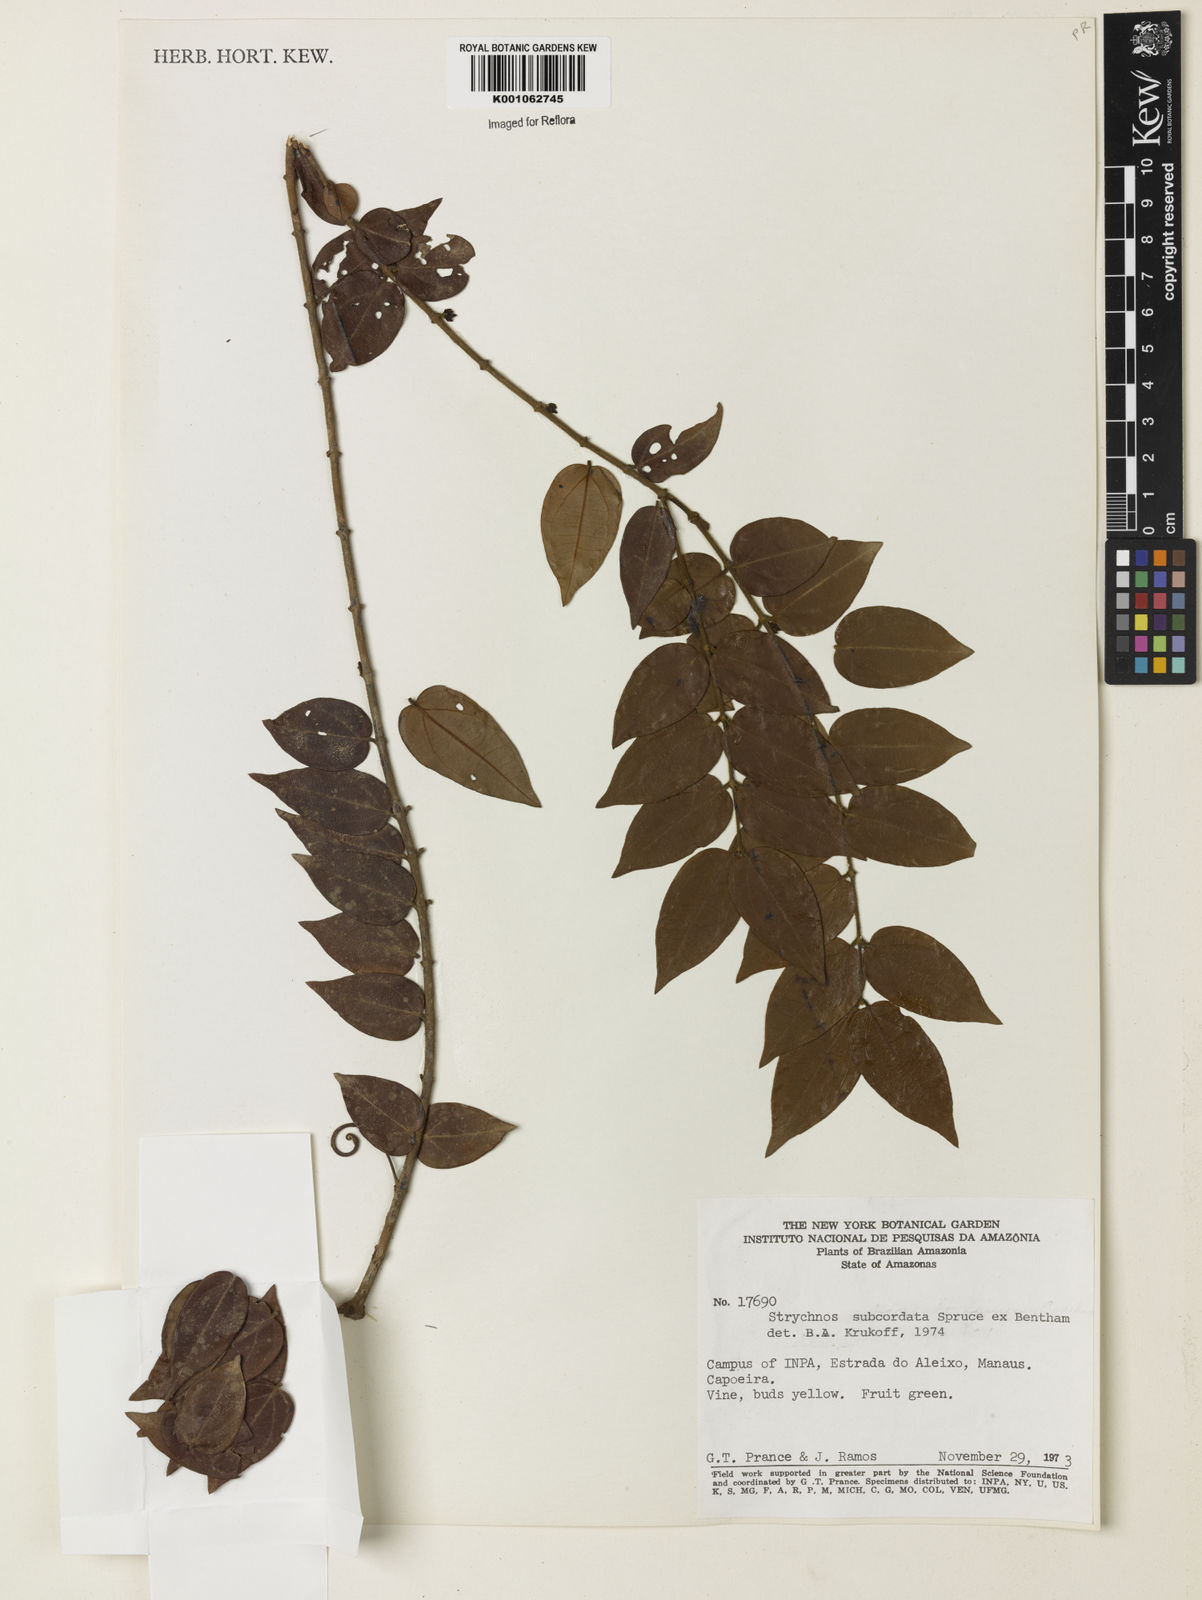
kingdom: Plantae
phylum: Tracheophyta
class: Magnoliopsida
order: Gentianales
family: Loganiaceae
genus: Strychnos
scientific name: Strychnos subcordata
